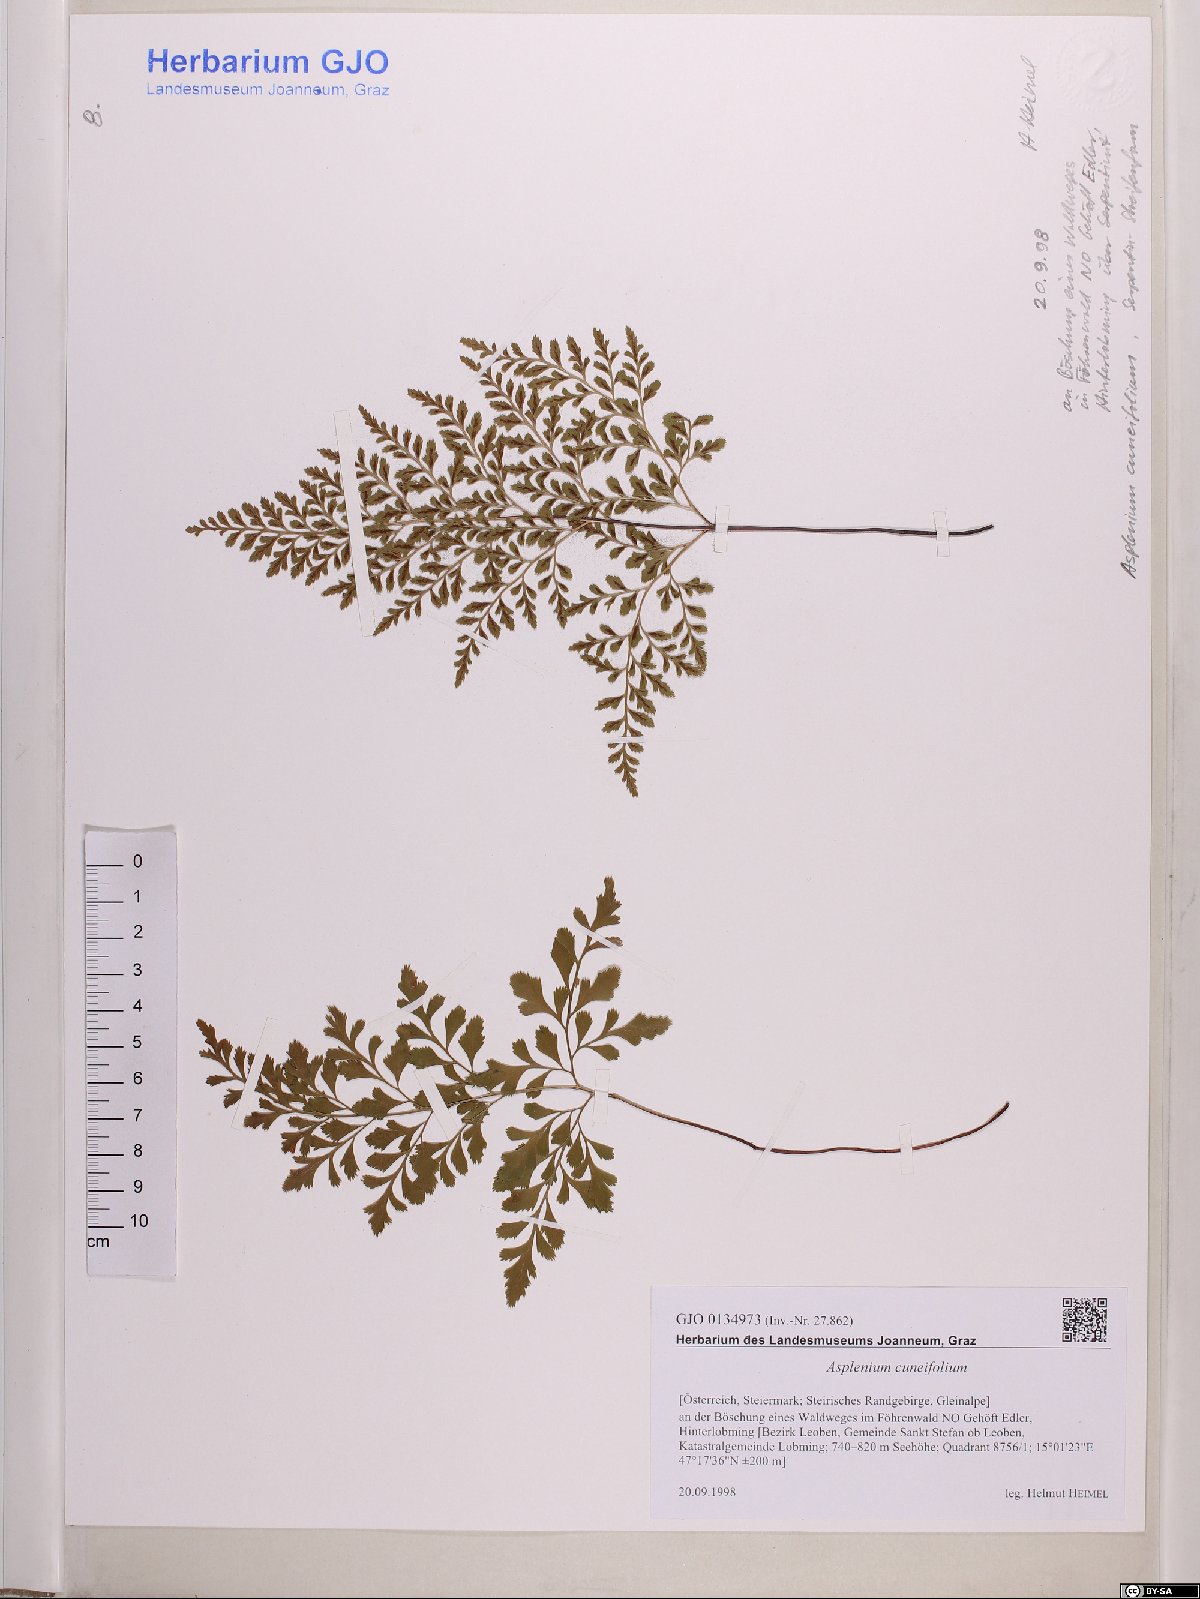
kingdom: Plantae
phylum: Tracheophyta
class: Polypodiopsida
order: Polypodiales
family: Aspleniaceae
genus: Asplenium
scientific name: Asplenium cuneifolium
